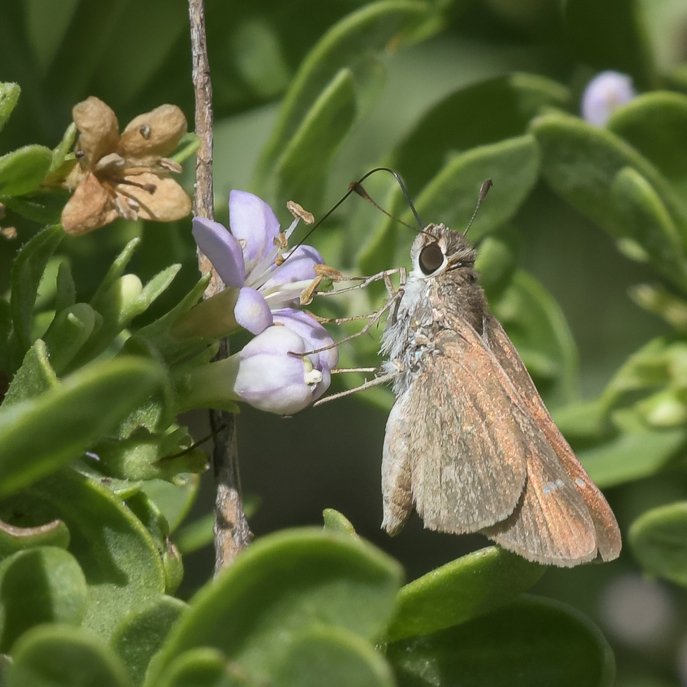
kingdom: Animalia
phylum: Arthropoda
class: Insecta
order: Lepidoptera
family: Hesperiidae
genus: Lerodea
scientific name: Lerodea eufala
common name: Eufala Skipper
